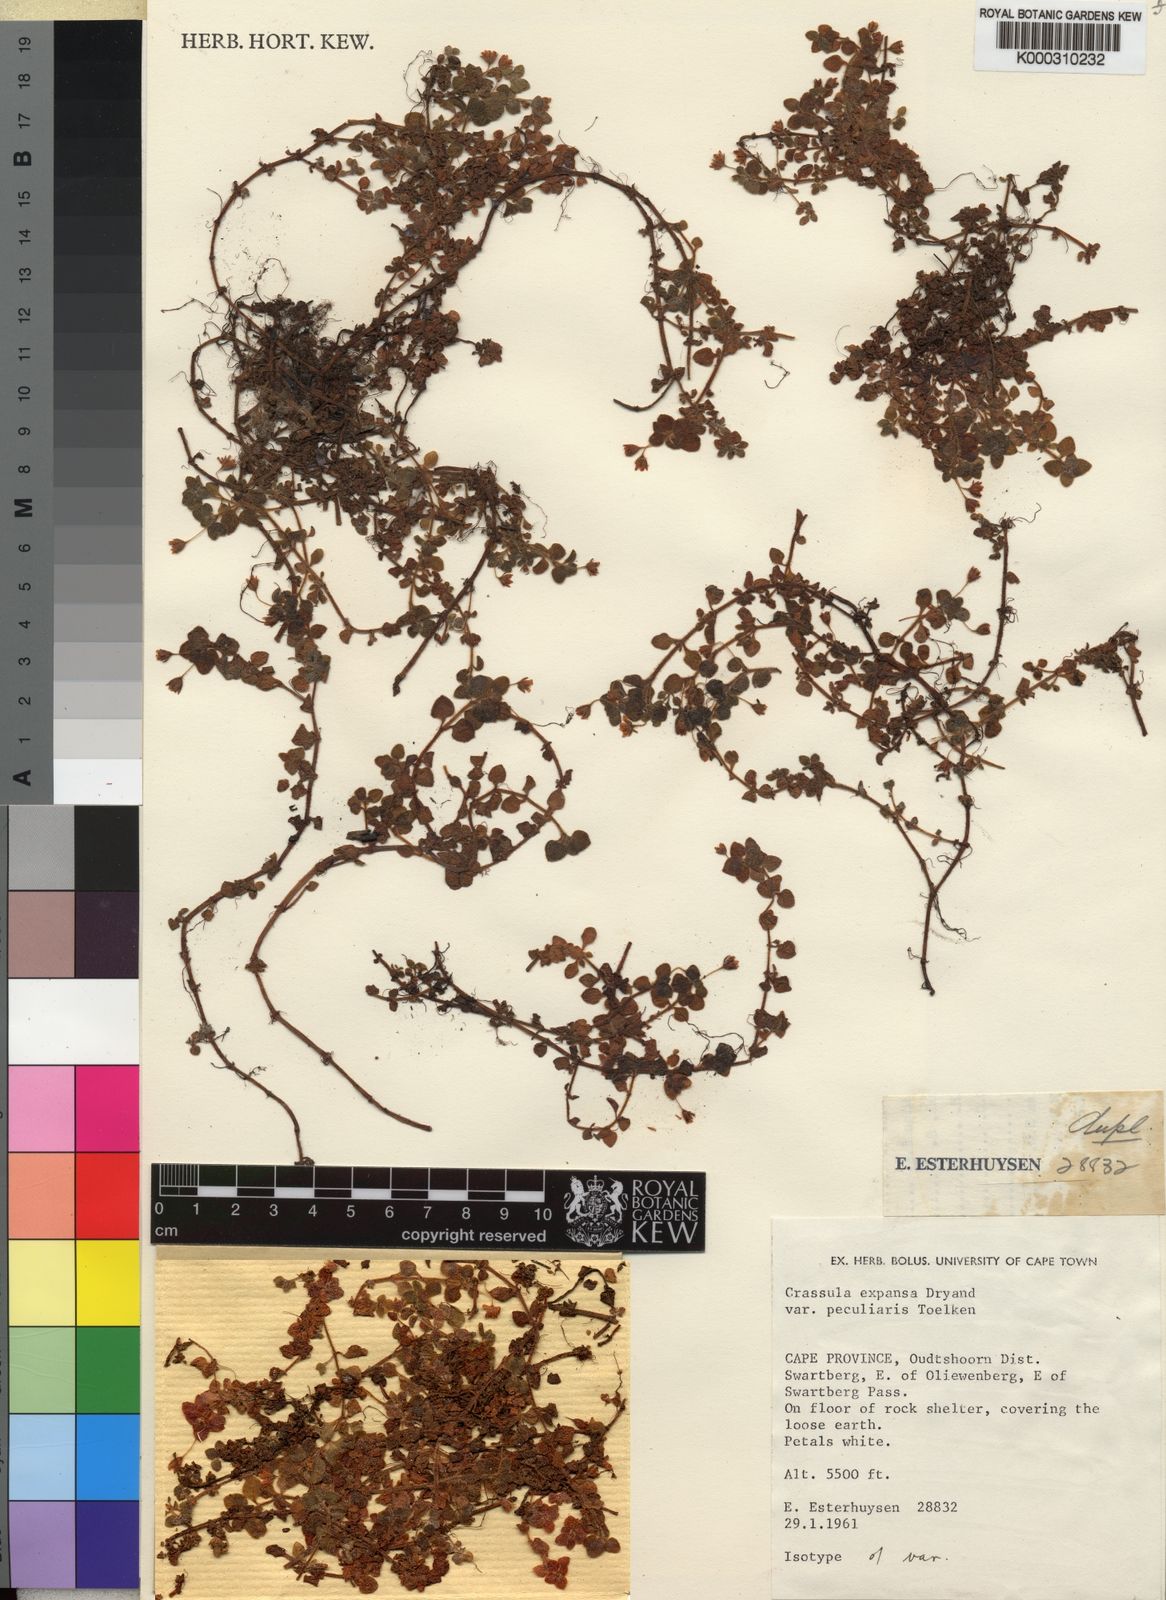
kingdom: Plantae
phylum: Tracheophyta
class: Magnoliopsida
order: Saxifragales
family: Crassulaceae
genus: Crassula
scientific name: Crassula peculiaris
